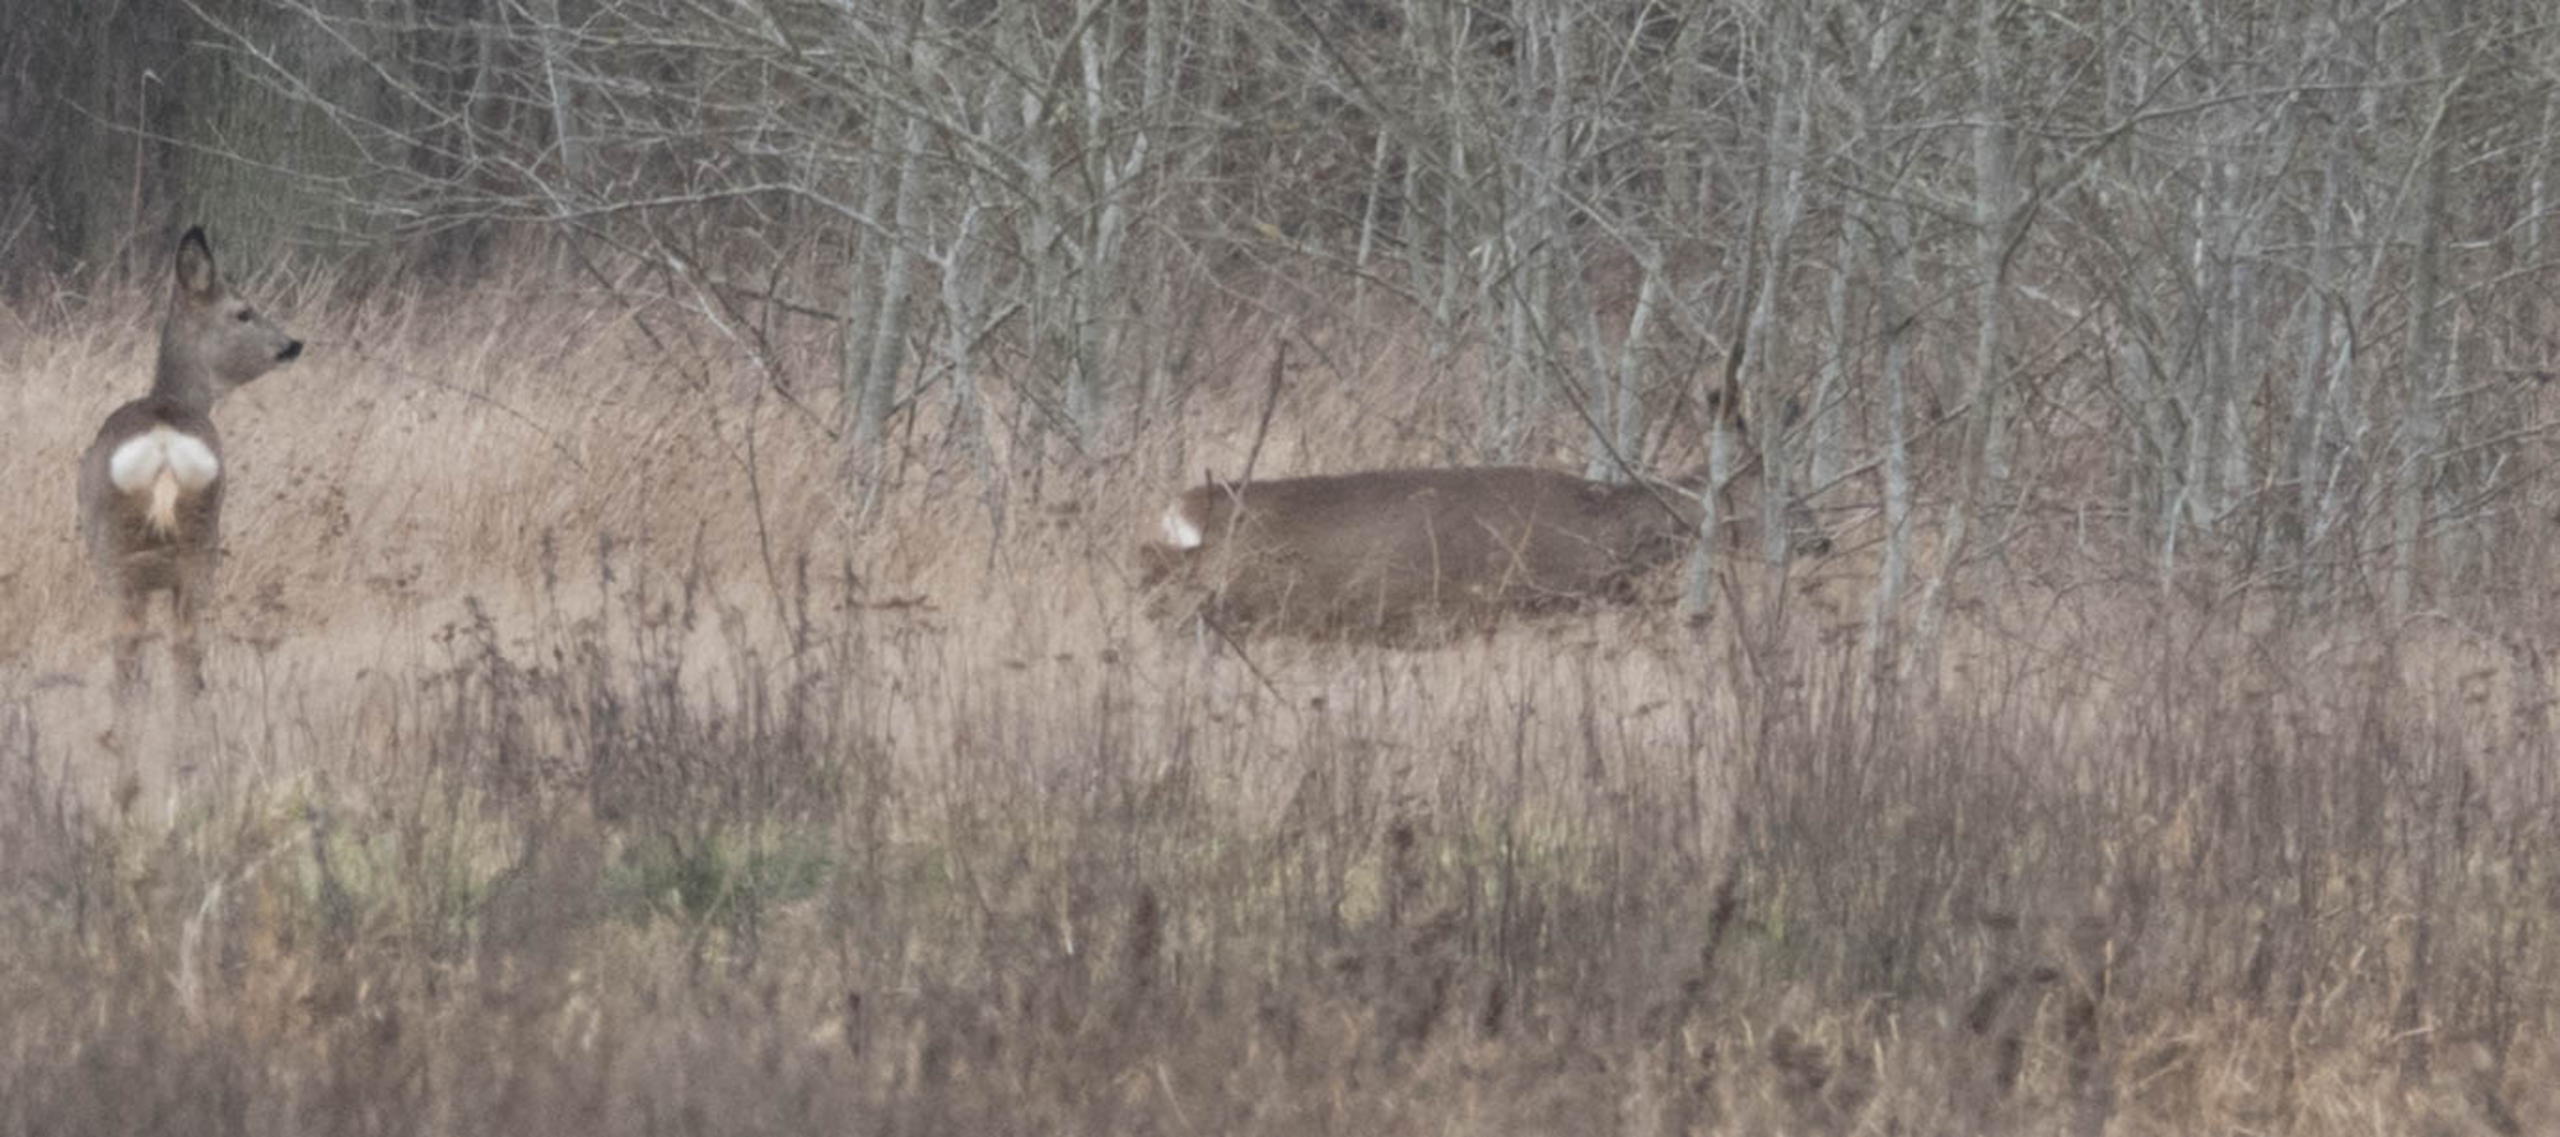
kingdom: Animalia
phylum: Chordata
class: Mammalia
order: Artiodactyla
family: Cervidae
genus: Capreolus
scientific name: Capreolus capreolus
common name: Rådyr
